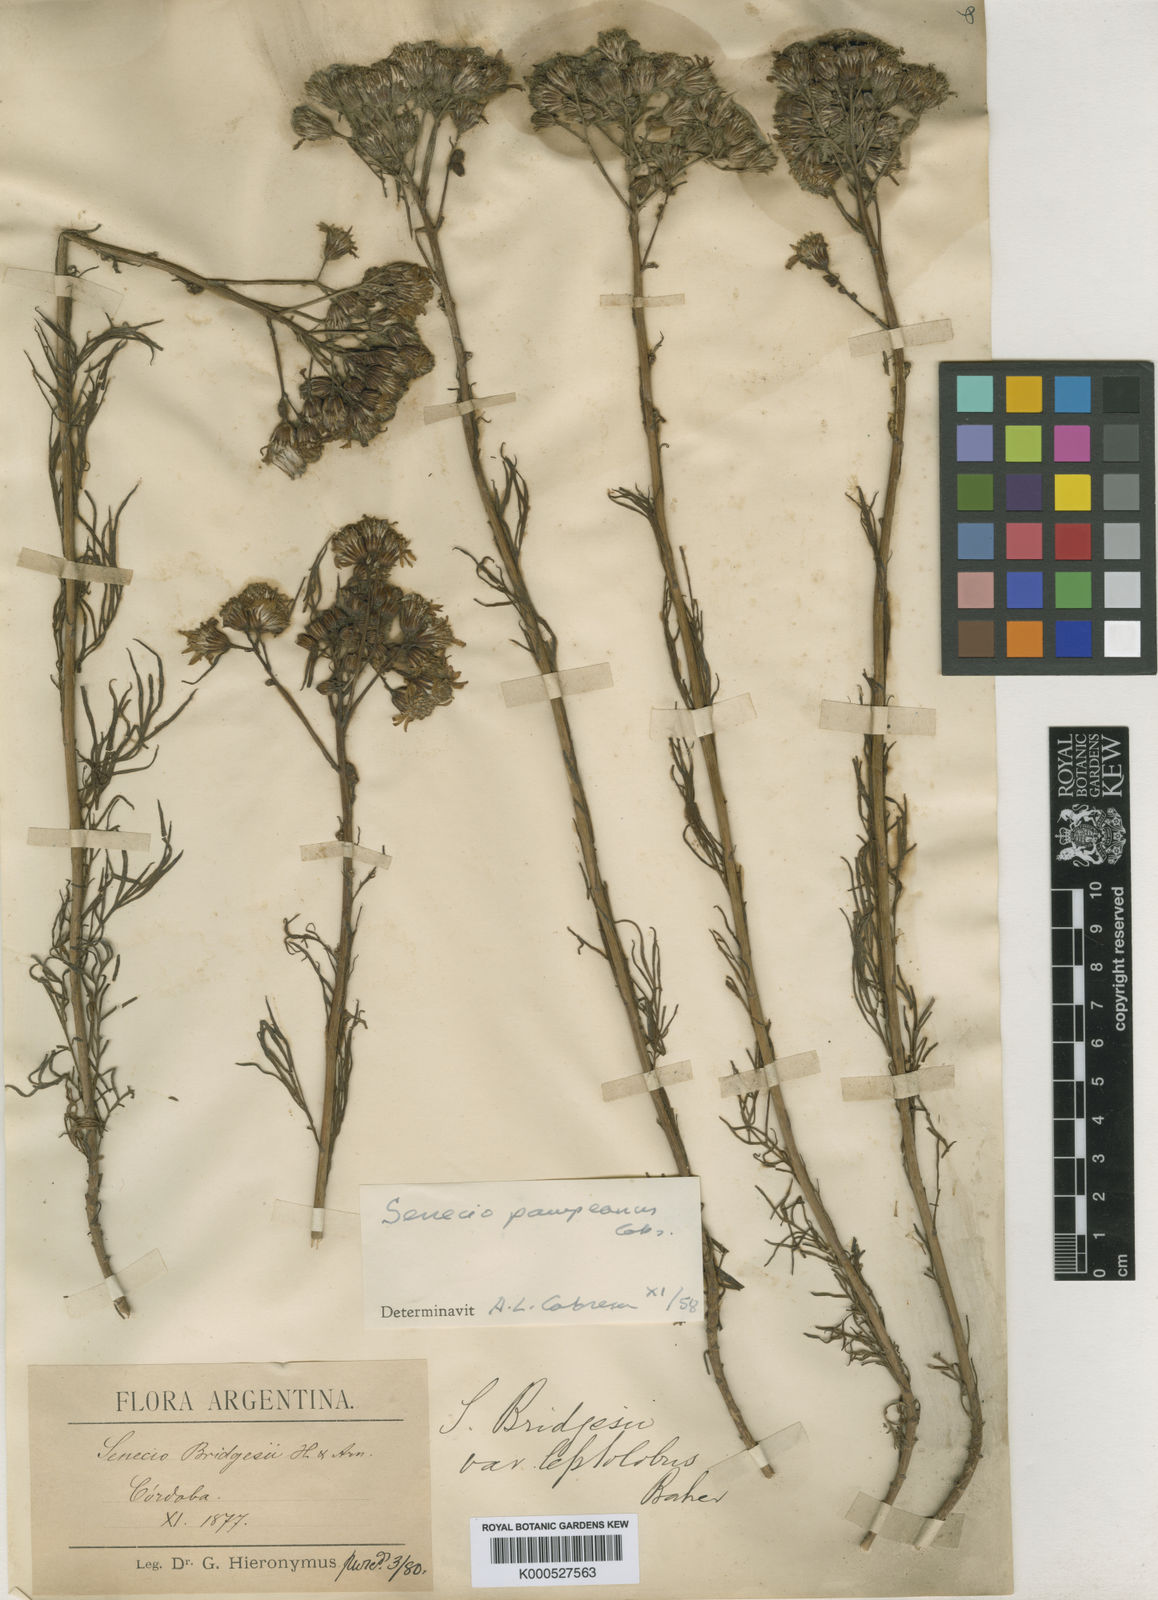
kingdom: Plantae
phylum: Tracheophyta
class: Magnoliopsida
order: Asterales
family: Asteraceae
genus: Senecio
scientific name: Senecio bridgesii
